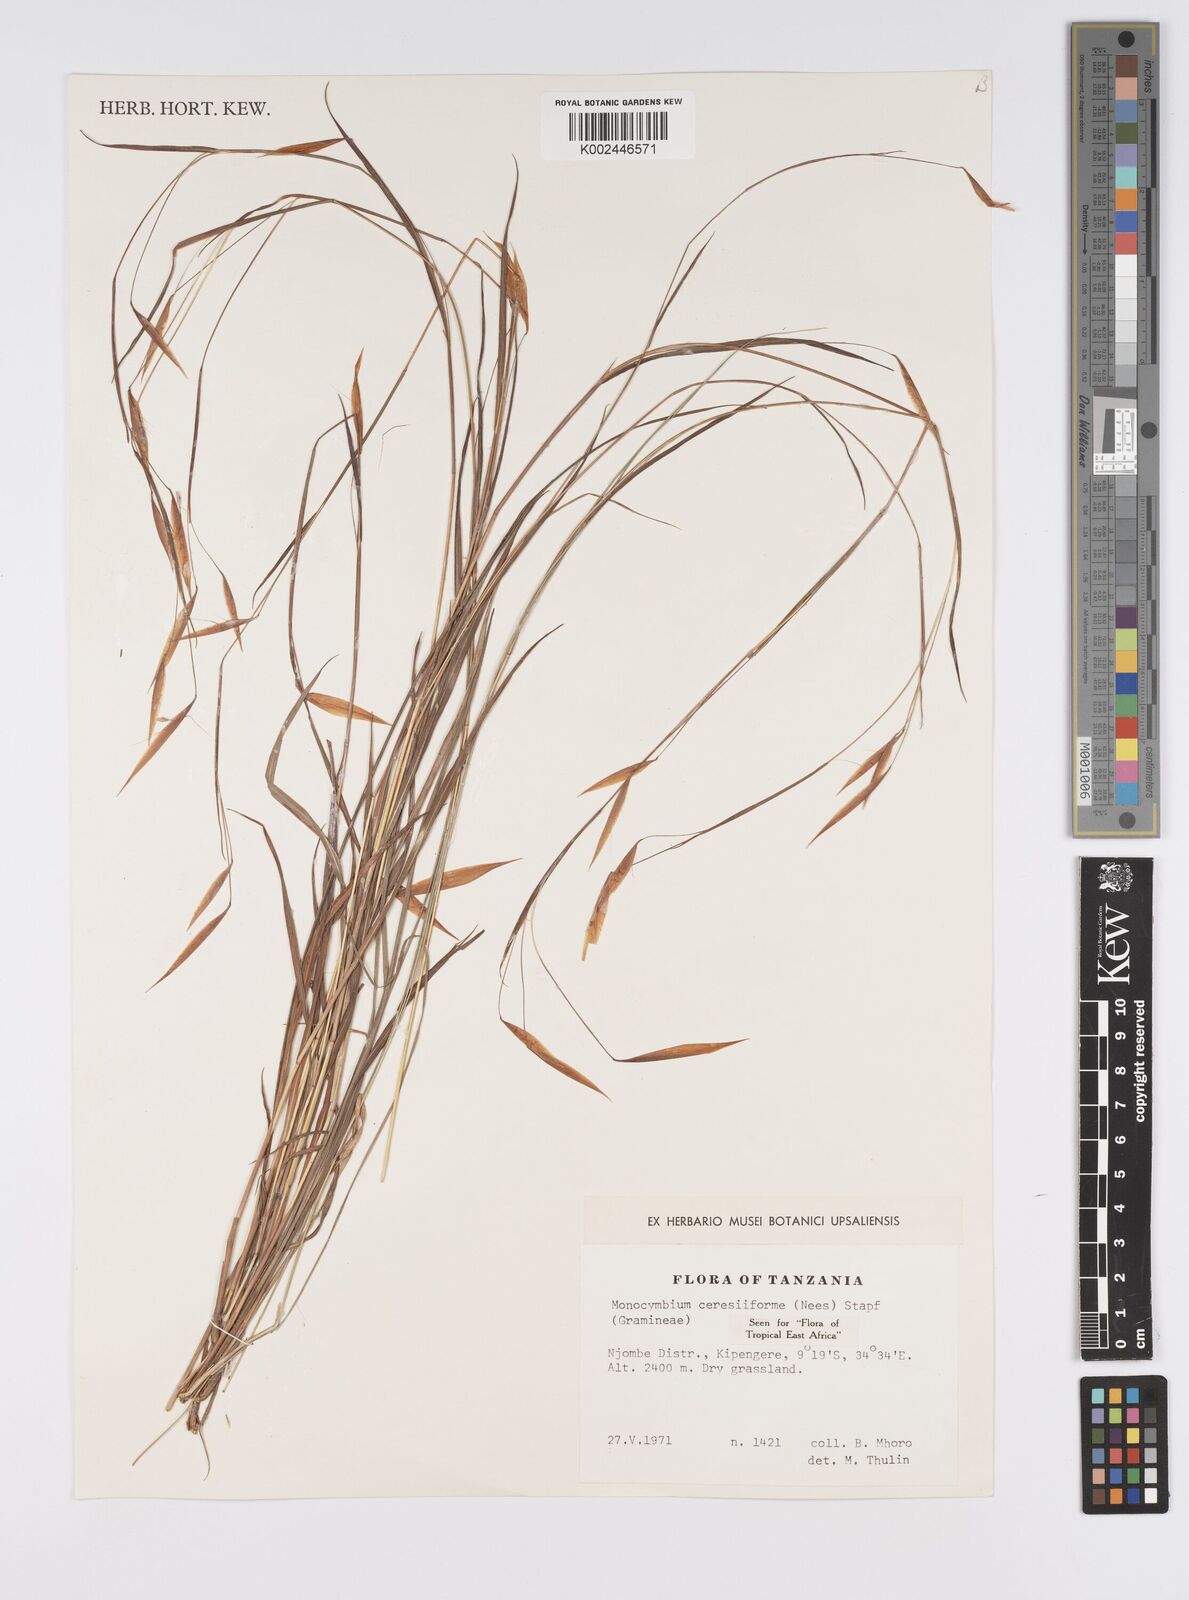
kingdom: Plantae
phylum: Tracheophyta
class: Liliopsida
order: Poales
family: Poaceae
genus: Monocymbium
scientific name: Monocymbium ceresiiforme
